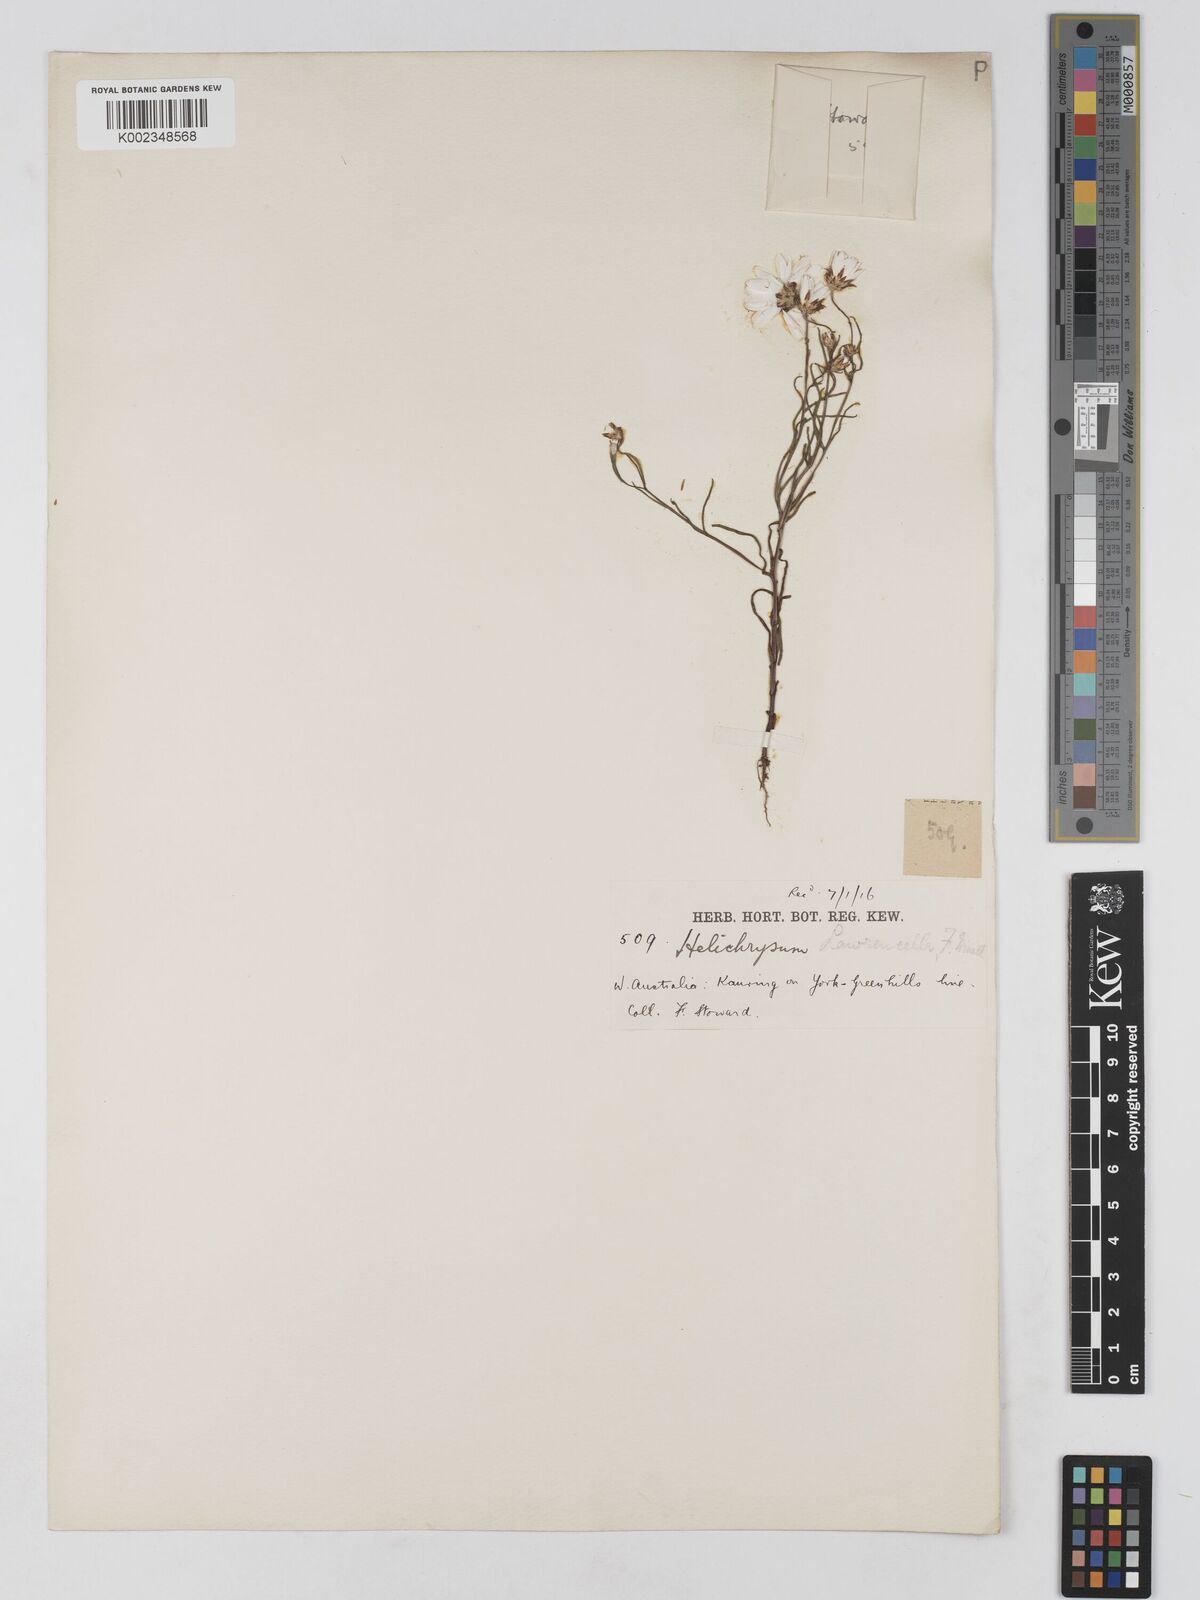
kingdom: Plantae
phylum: Tracheophyta
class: Magnoliopsida
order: Asterales
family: Asteraceae
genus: Lawrencella
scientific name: Lawrencella rosea
